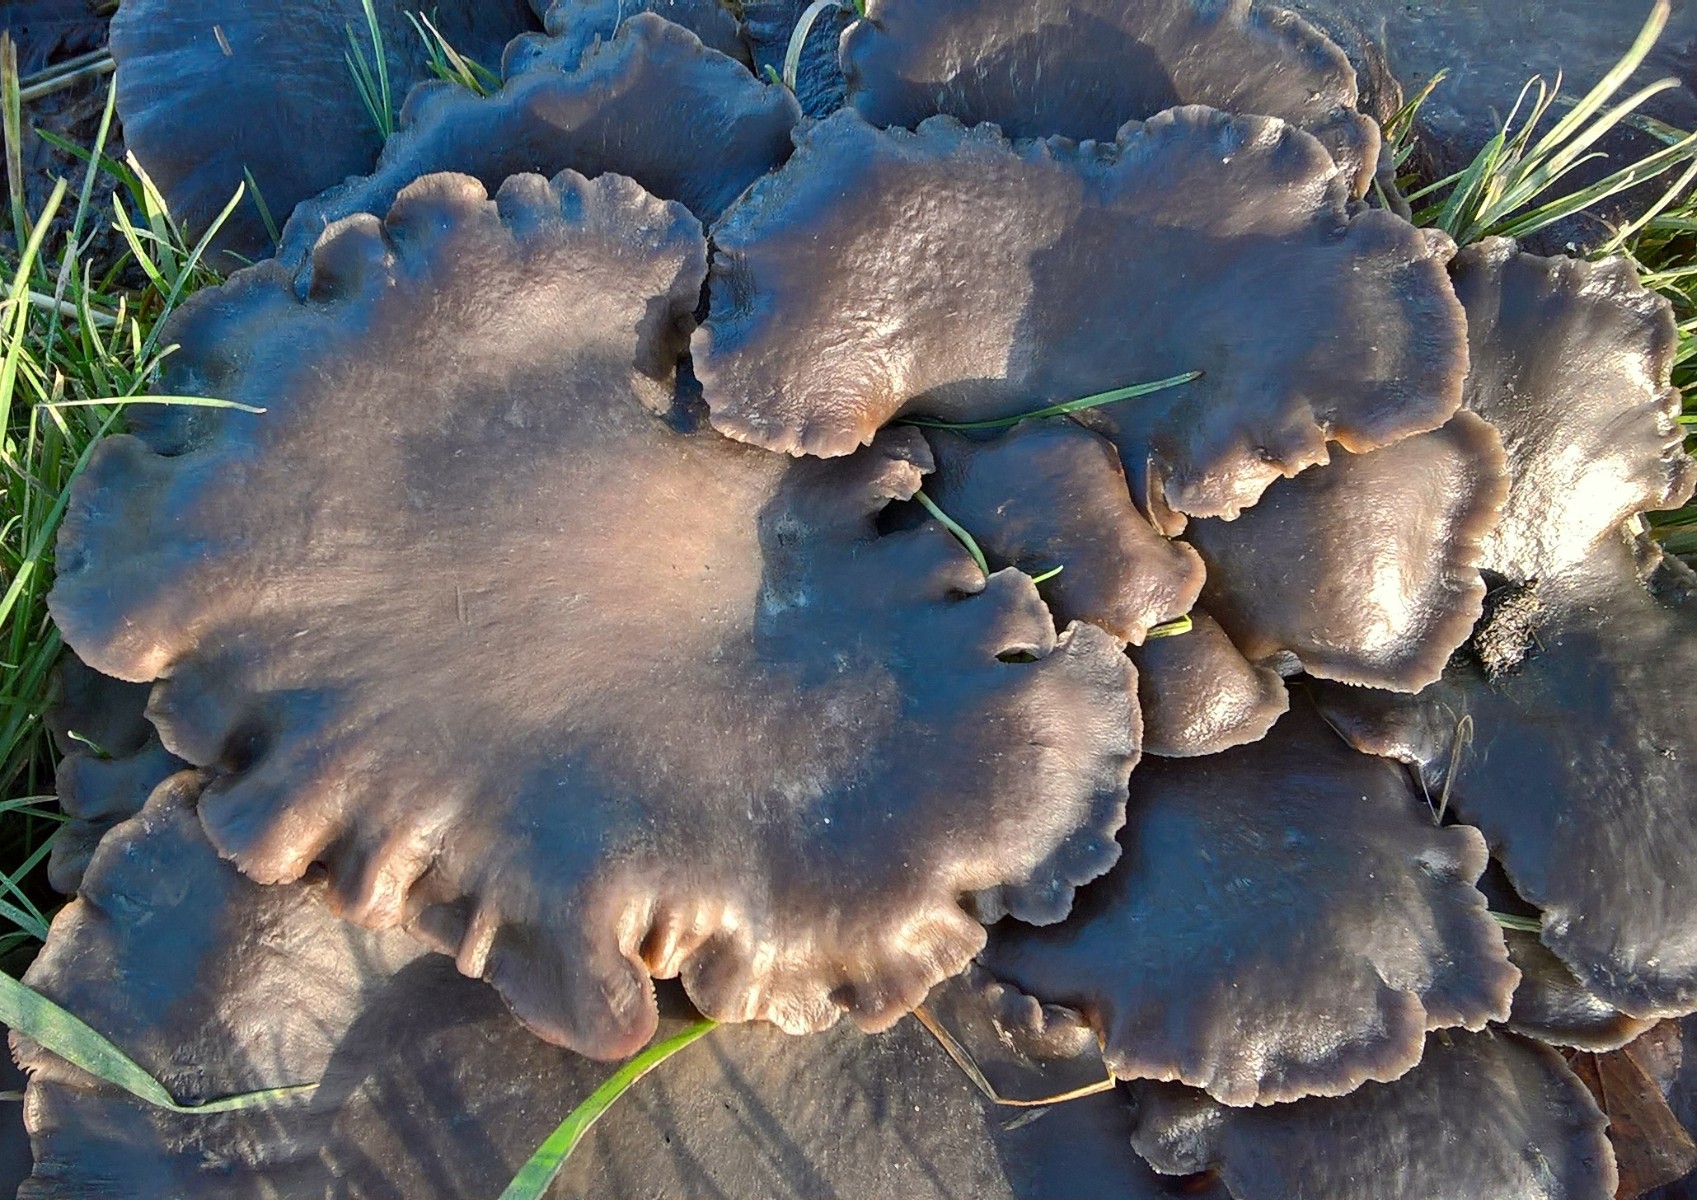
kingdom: Fungi
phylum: Basidiomycota
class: Agaricomycetes
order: Agaricales
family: Pleurotaceae
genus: Pleurotus
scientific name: Pleurotus ostreatus
